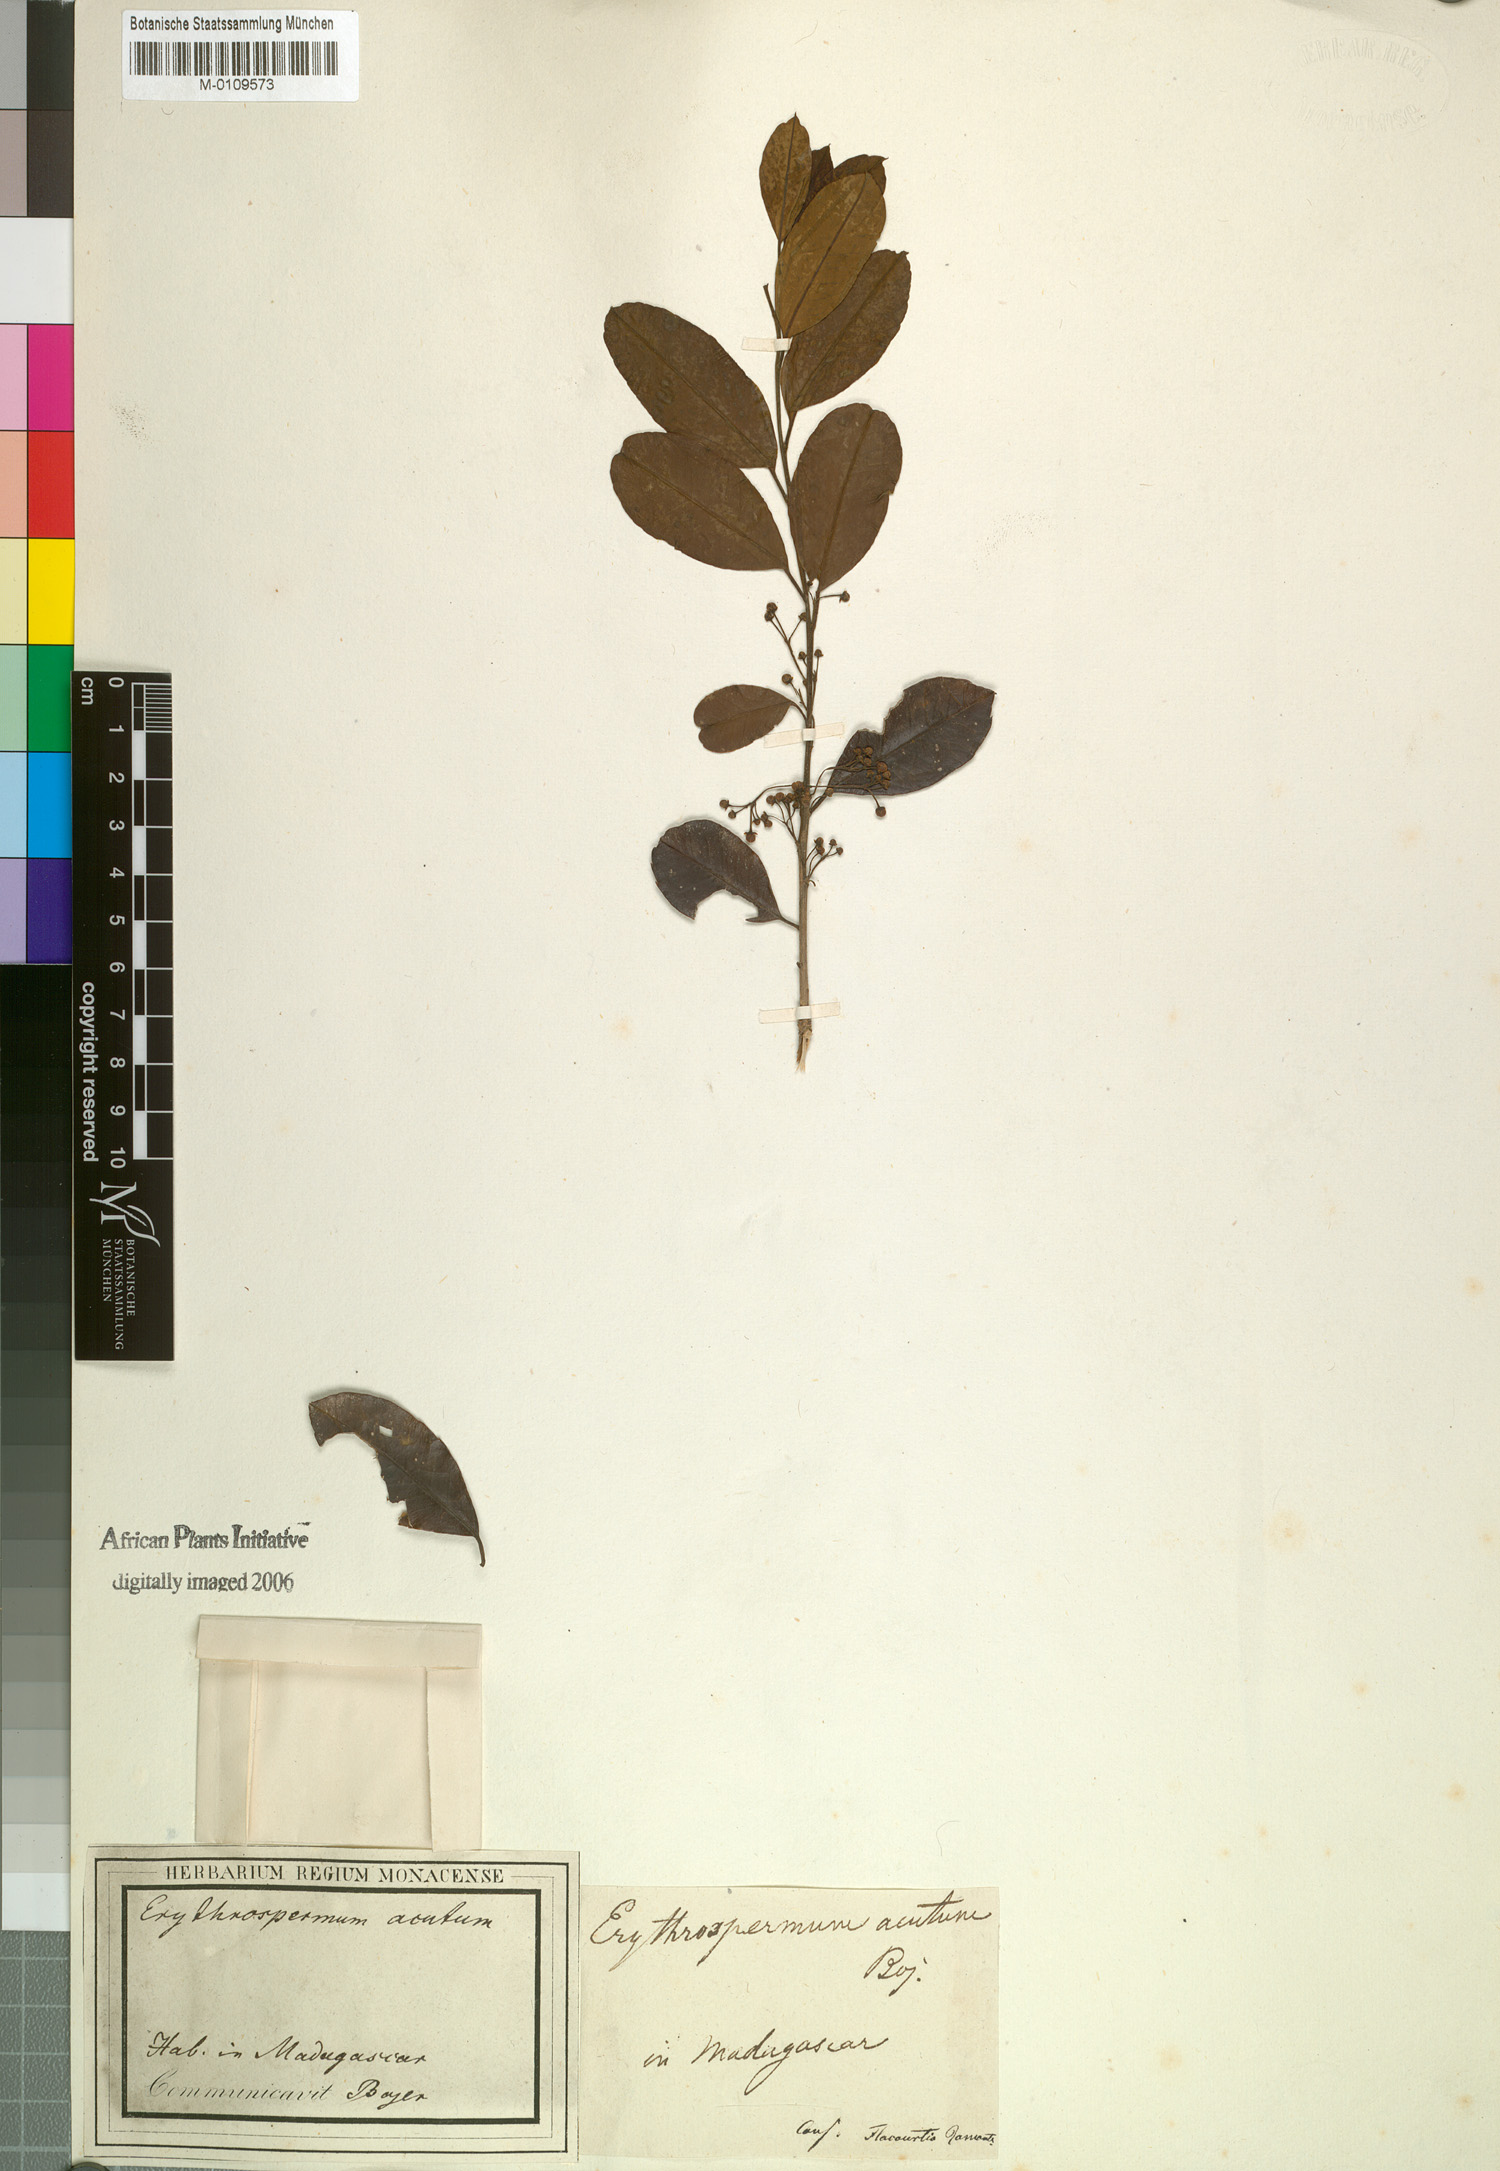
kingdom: Plantae
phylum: Tracheophyta
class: Magnoliopsida
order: Malpighiales
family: Achariaceae
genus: Erythrospermum
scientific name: Erythrospermum
